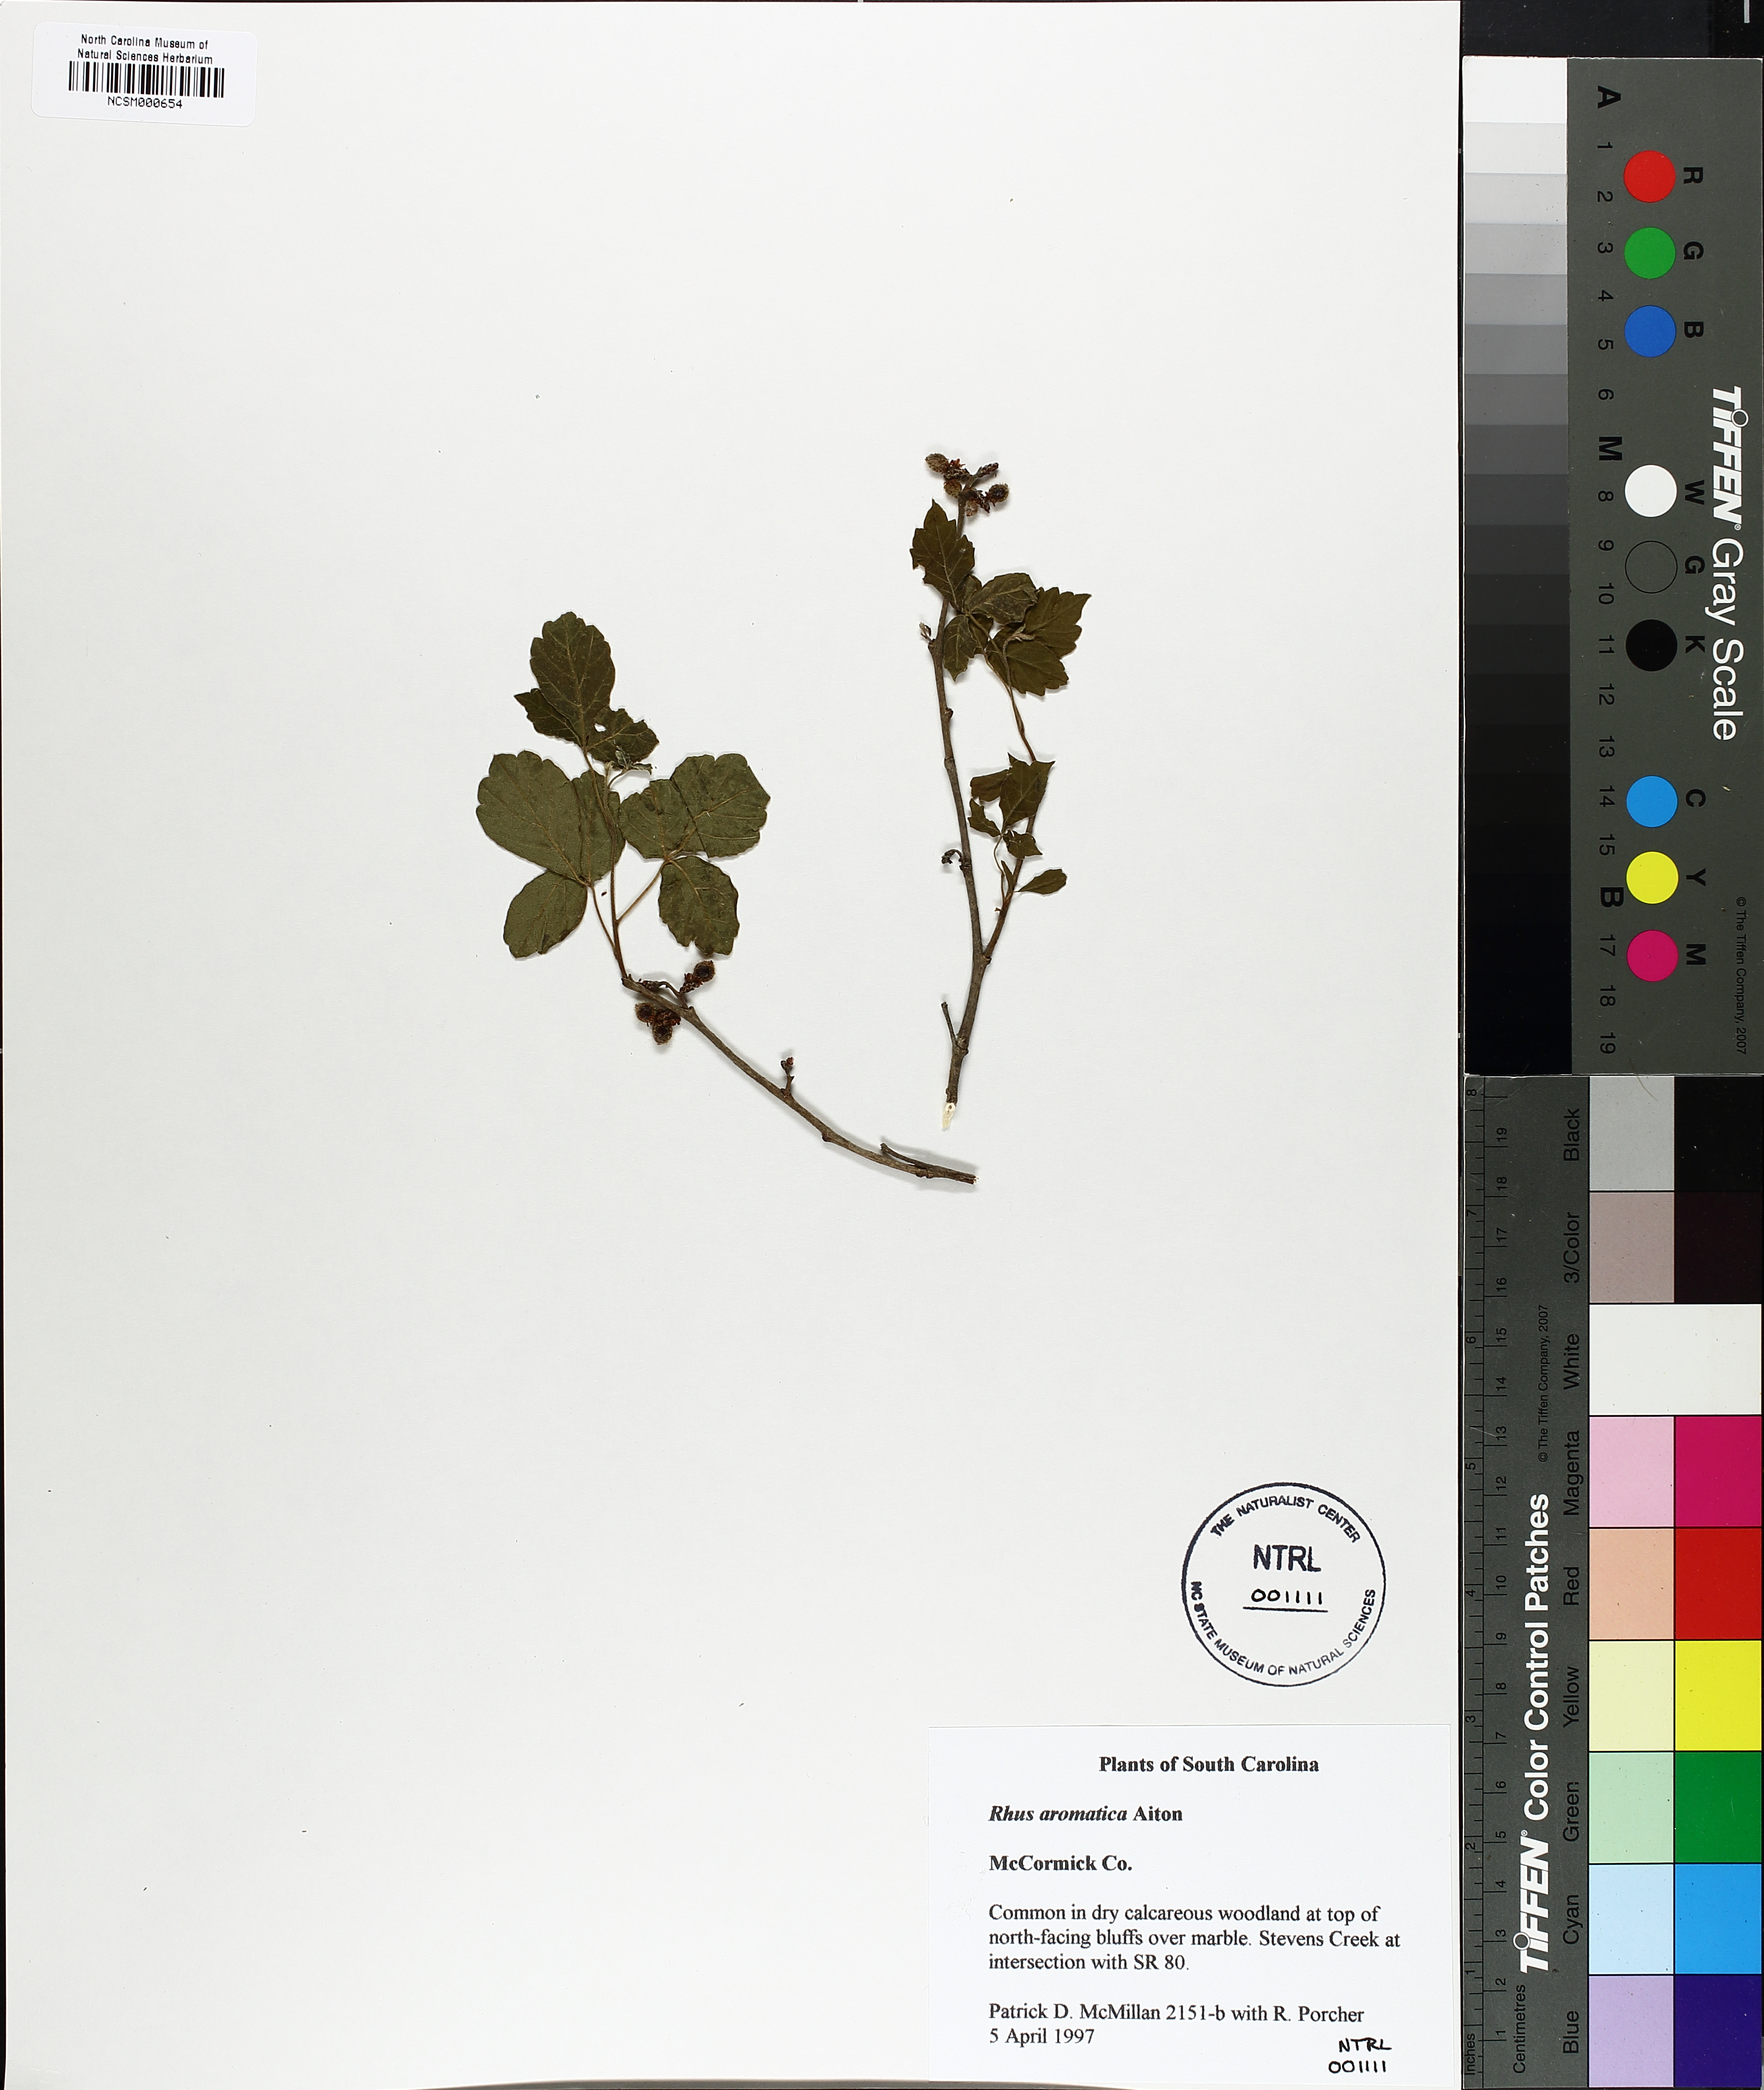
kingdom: Plantae
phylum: Tracheophyta
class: Magnoliopsida
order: Sapindales
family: Anacardiaceae
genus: Rhus
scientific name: Rhus aromatica
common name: Aromatic sumac
